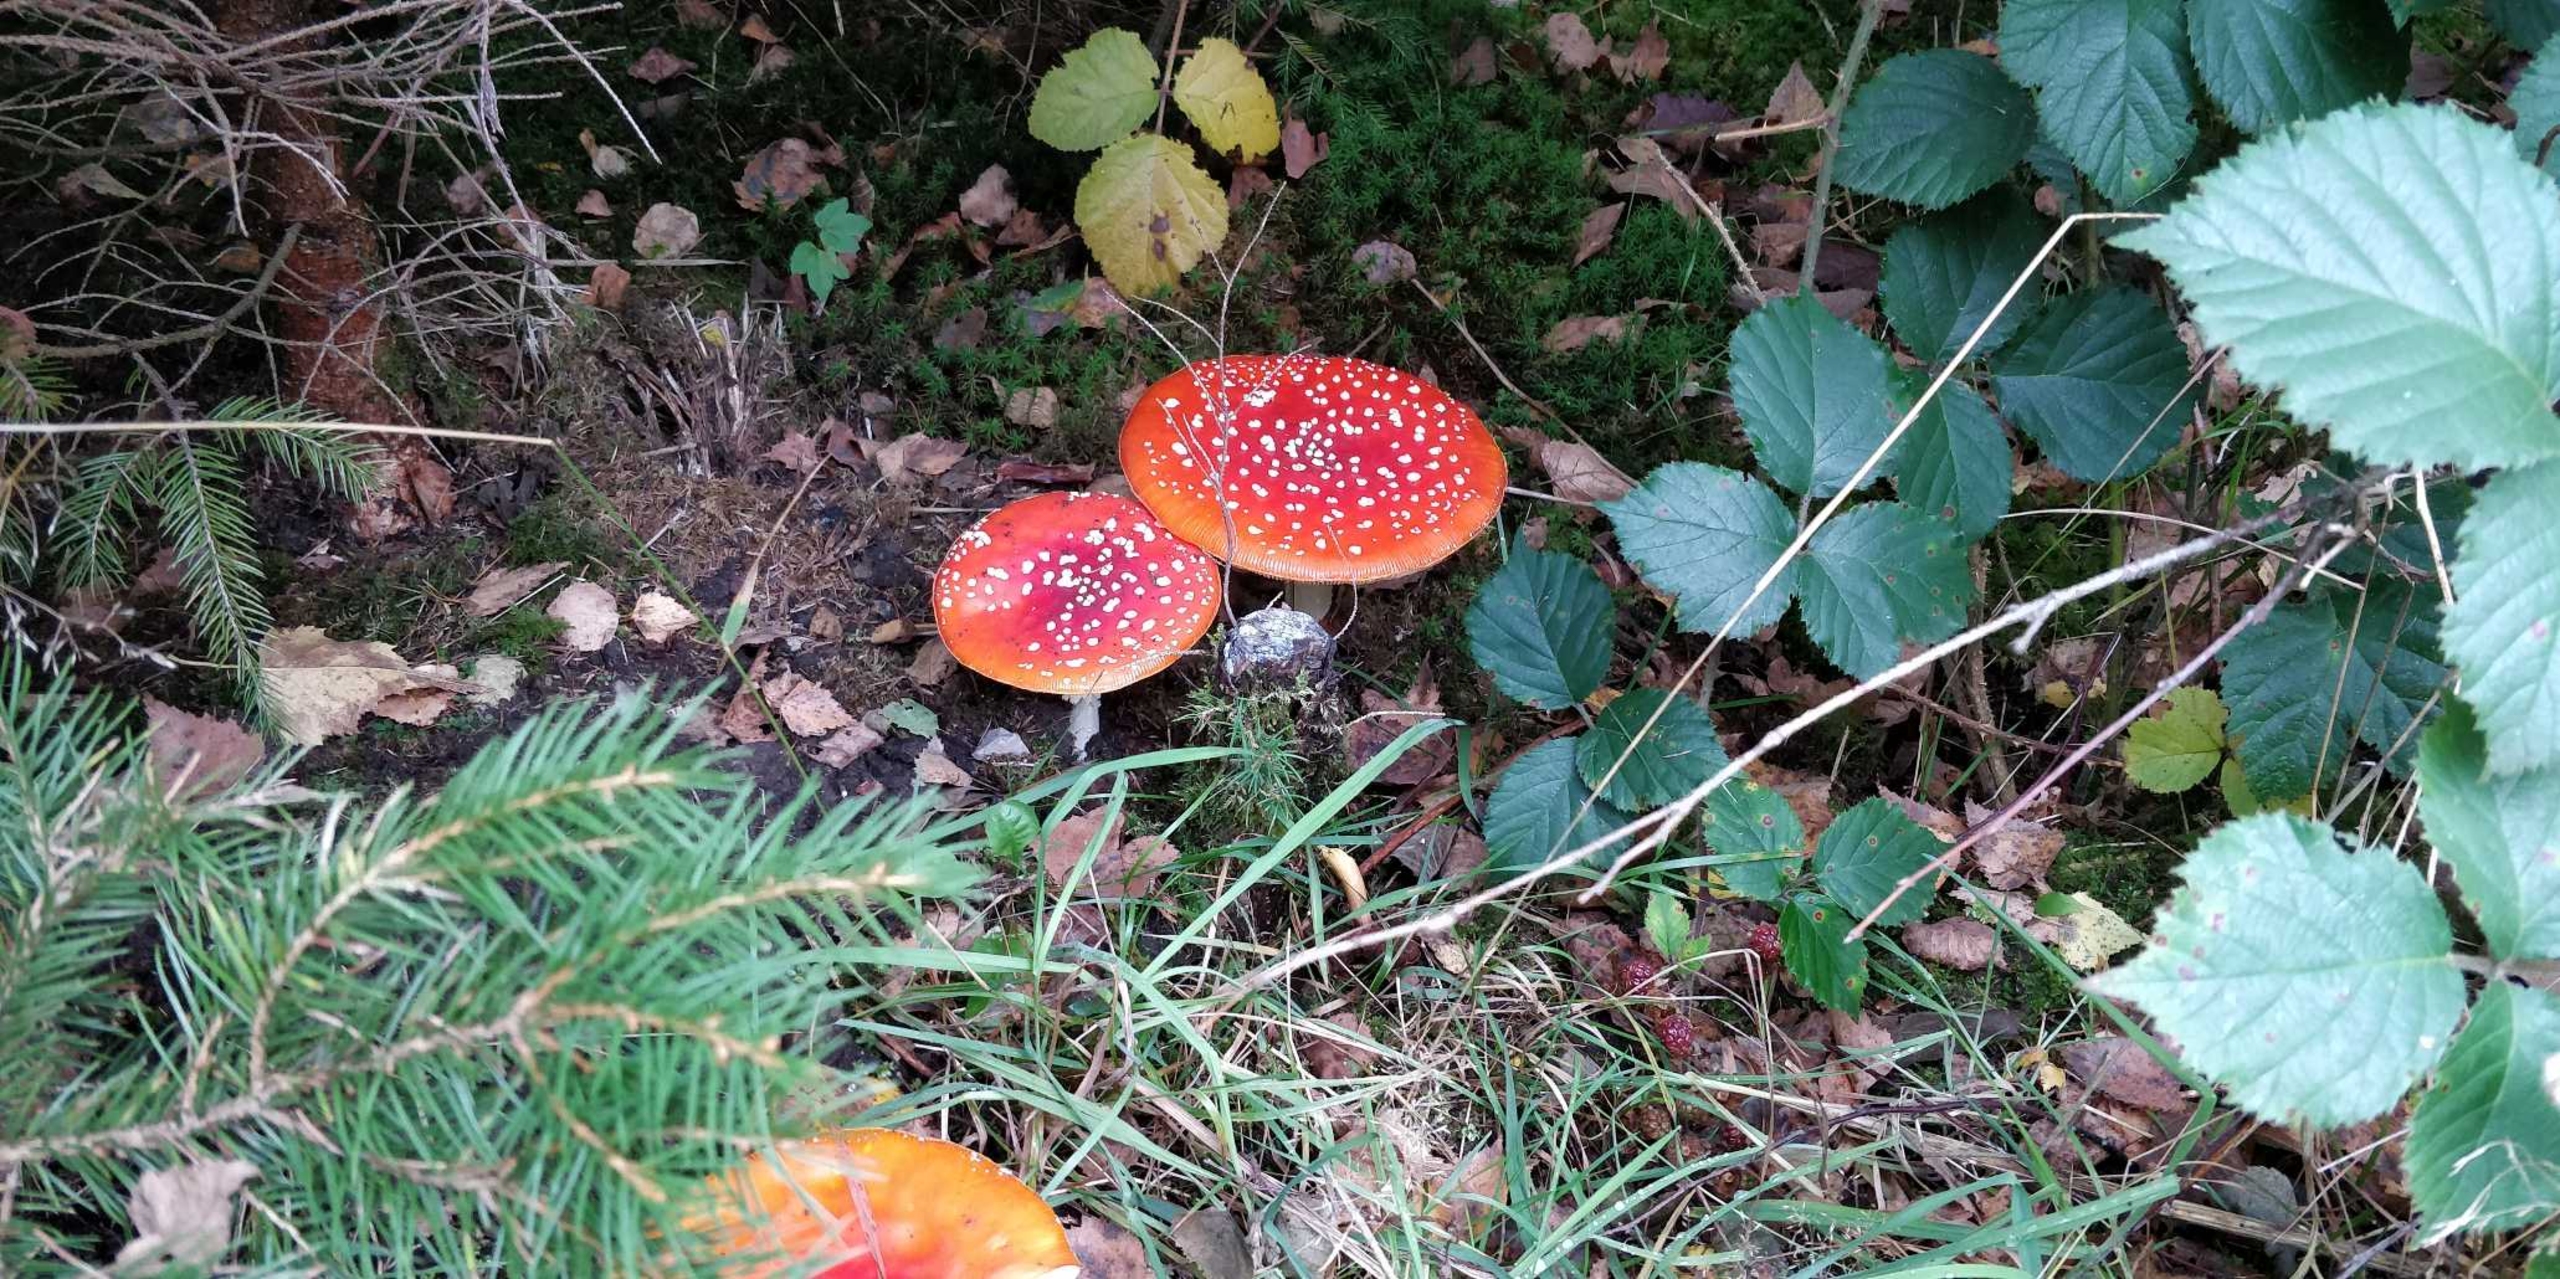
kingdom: Fungi
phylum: Basidiomycota
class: Agaricomycetes
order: Agaricales
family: Amanitaceae
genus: Amanita
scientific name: Amanita muscaria
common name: Rød fluesvamp
